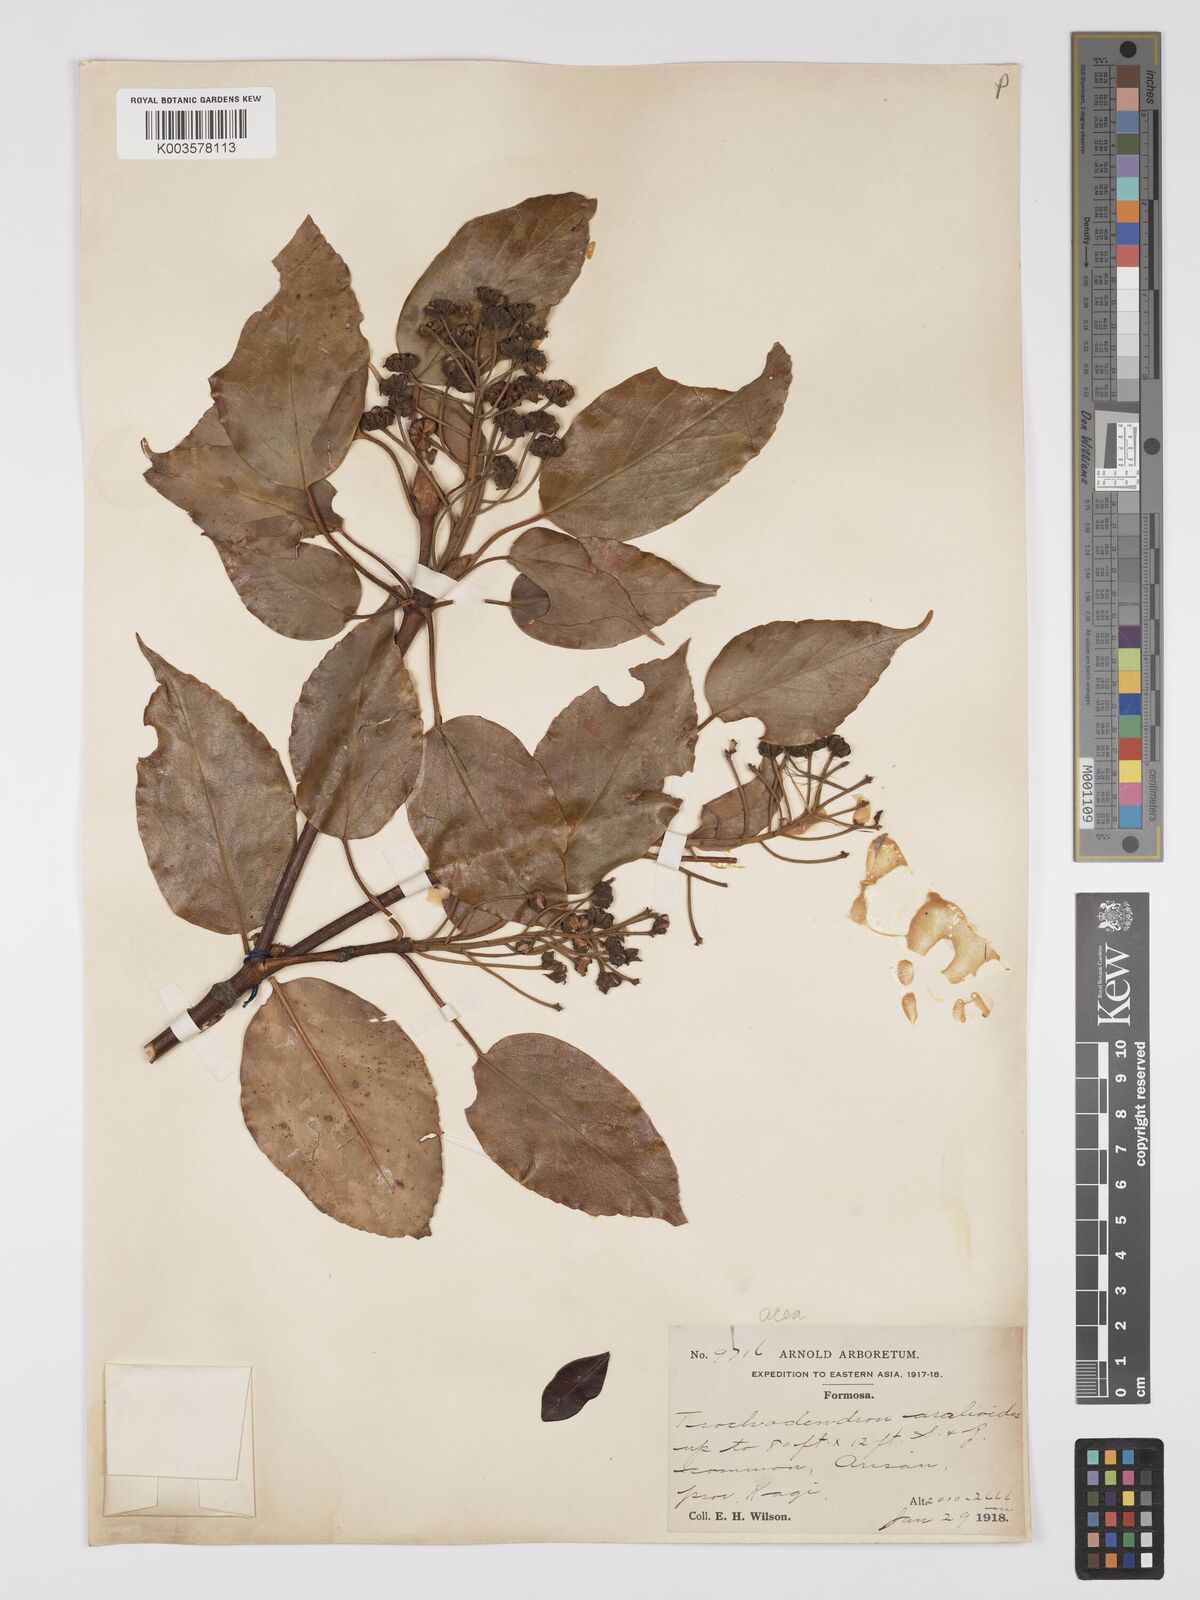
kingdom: Plantae
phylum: Tracheophyta
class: Magnoliopsida
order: Trochodendrales
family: Trochodendraceae
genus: Trochodendron
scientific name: Trochodendron
